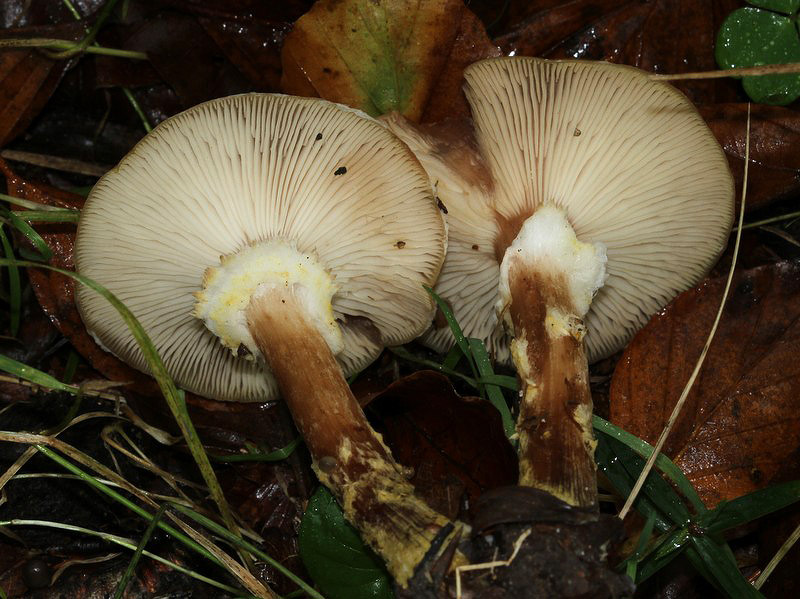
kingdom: Fungi
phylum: Basidiomycota
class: Agaricomycetes
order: Agaricales
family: Physalacriaceae
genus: Armillaria
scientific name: Armillaria lutea
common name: køllestokket honningsvamp
